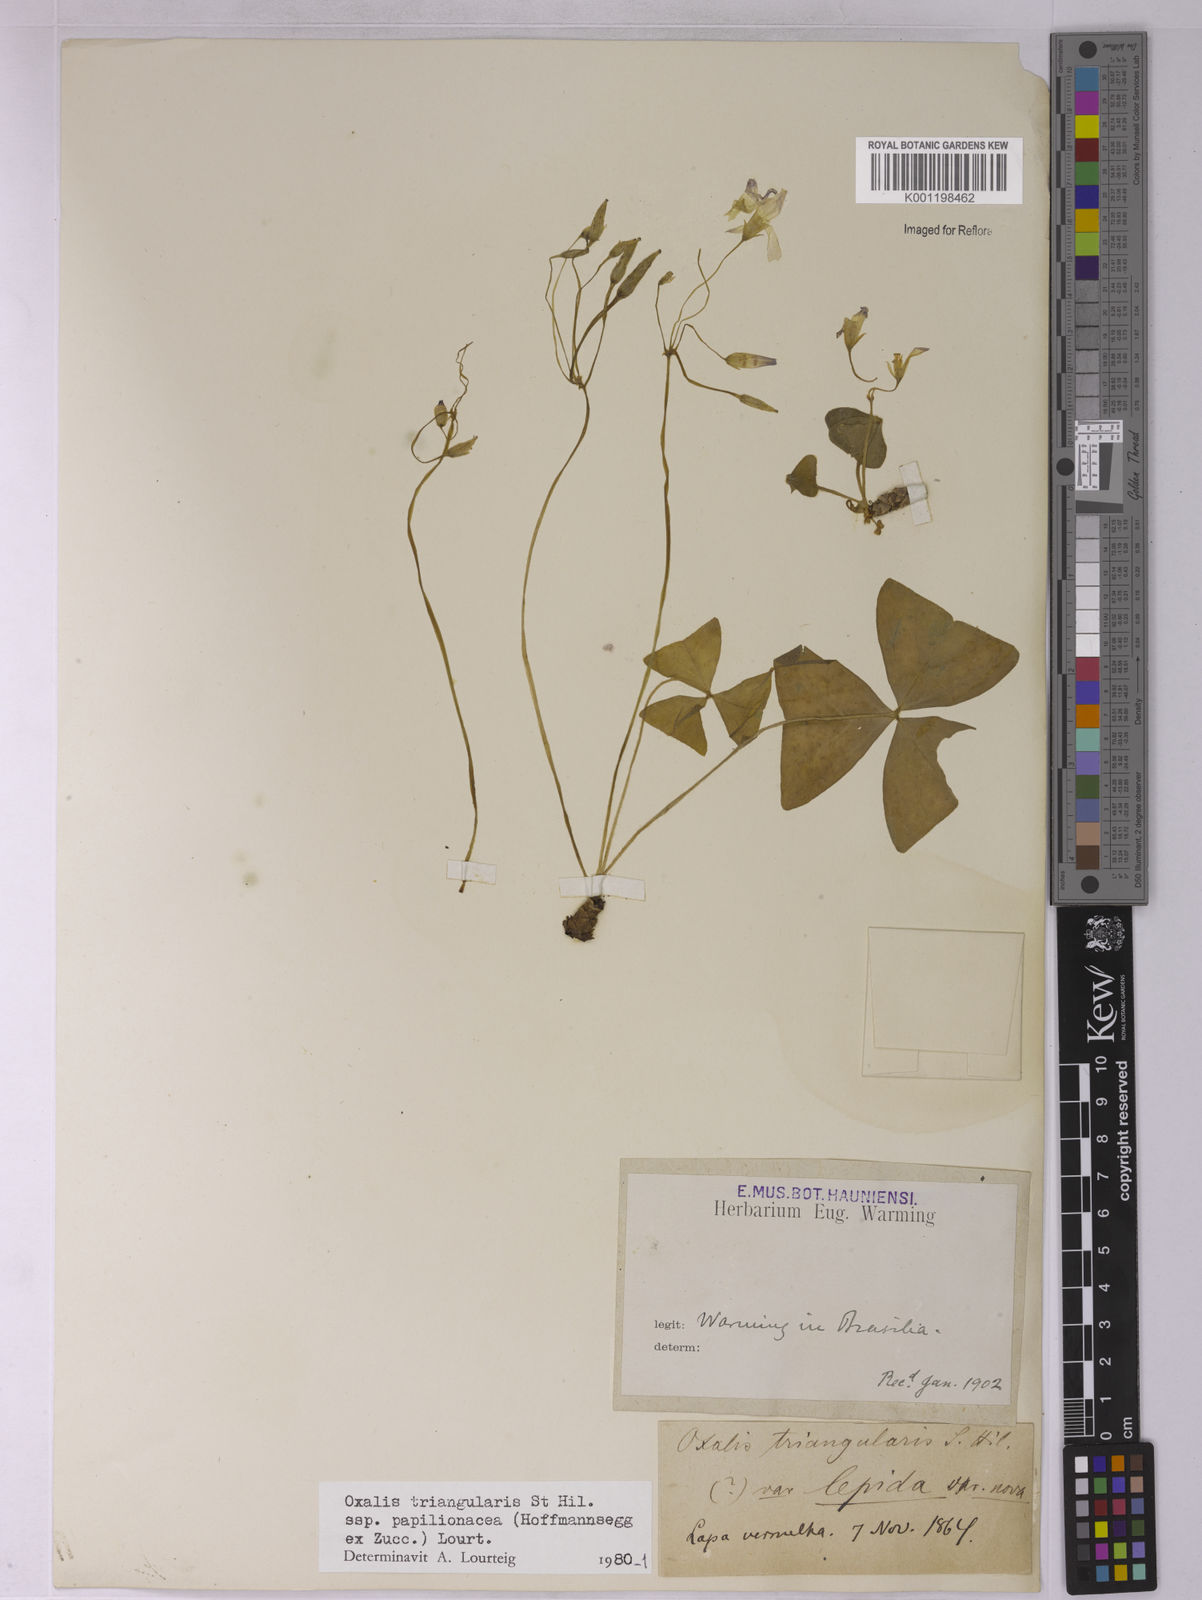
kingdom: Plantae
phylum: Tracheophyta
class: Magnoliopsida
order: Oxalidales
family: Oxalidaceae
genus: Oxalis
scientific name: Oxalis triangularis
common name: Wood sorrel
